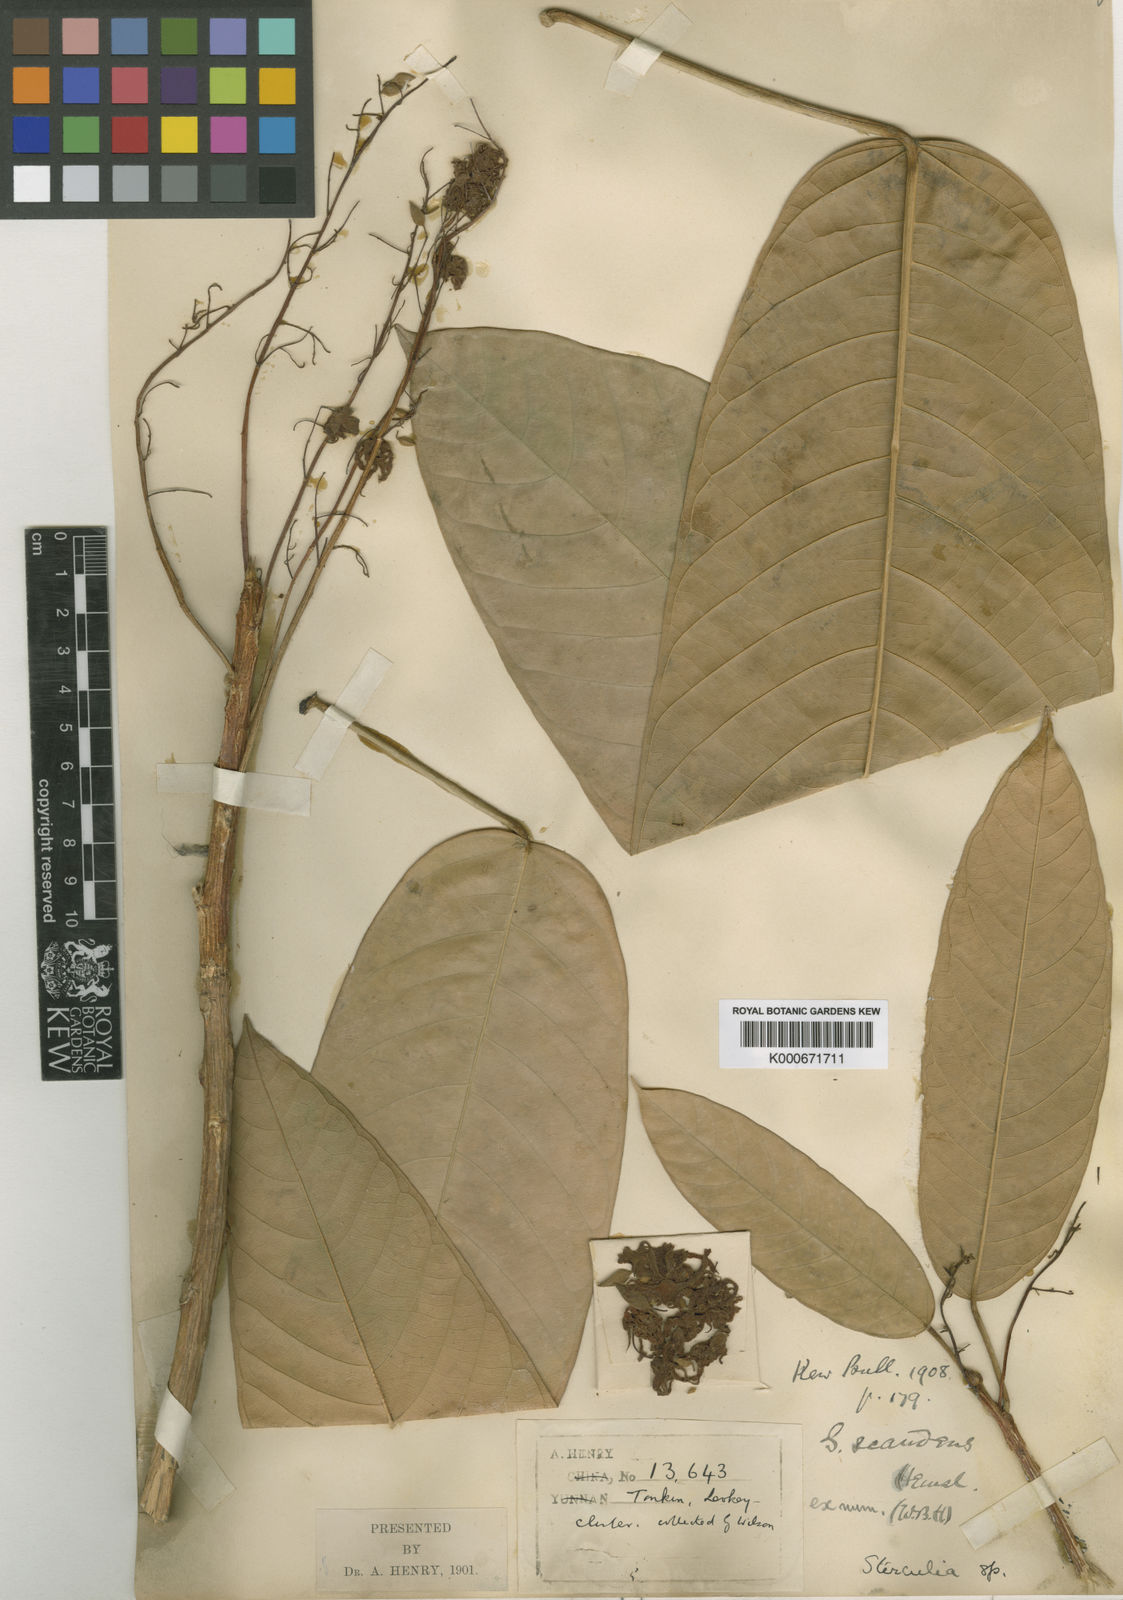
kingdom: Plantae
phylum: Tracheophyta
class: Magnoliopsida
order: Malvales
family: Malvaceae
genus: Sterculia
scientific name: Sterculia scandens
